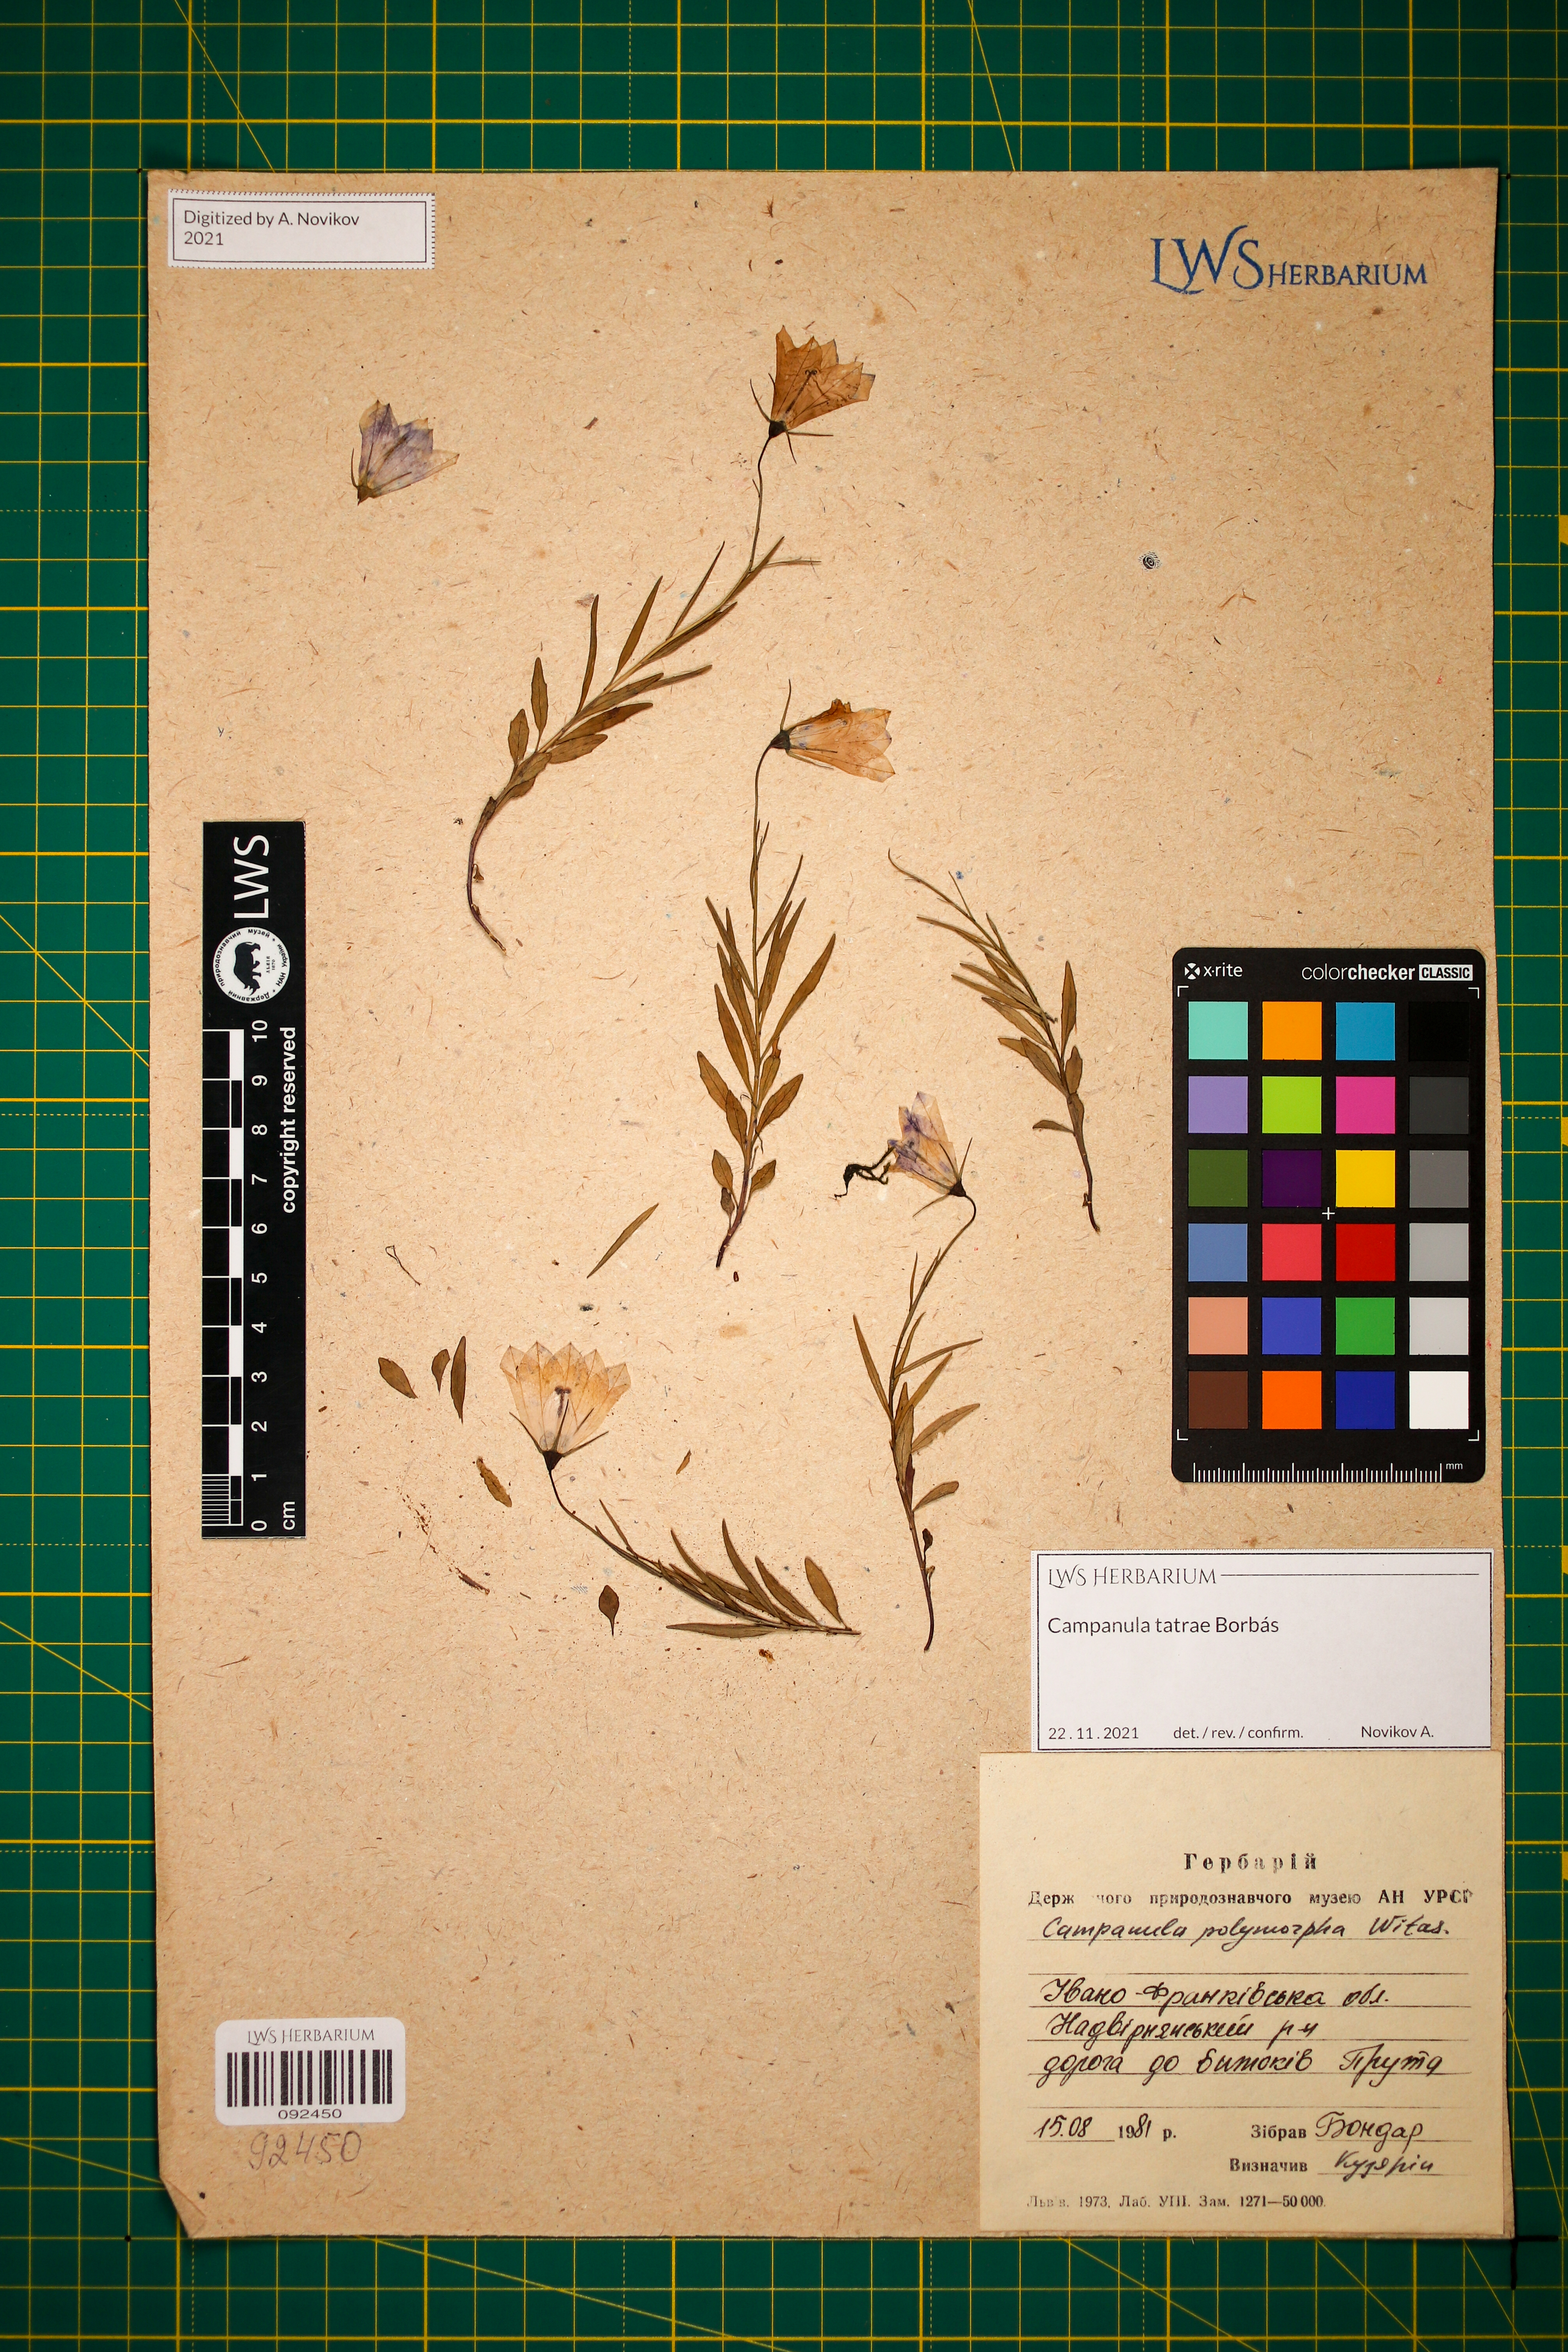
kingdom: Plantae
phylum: Tracheophyta
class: Magnoliopsida
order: Asterales
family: Campanulaceae
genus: Campanula
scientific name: Campanula tatrae
